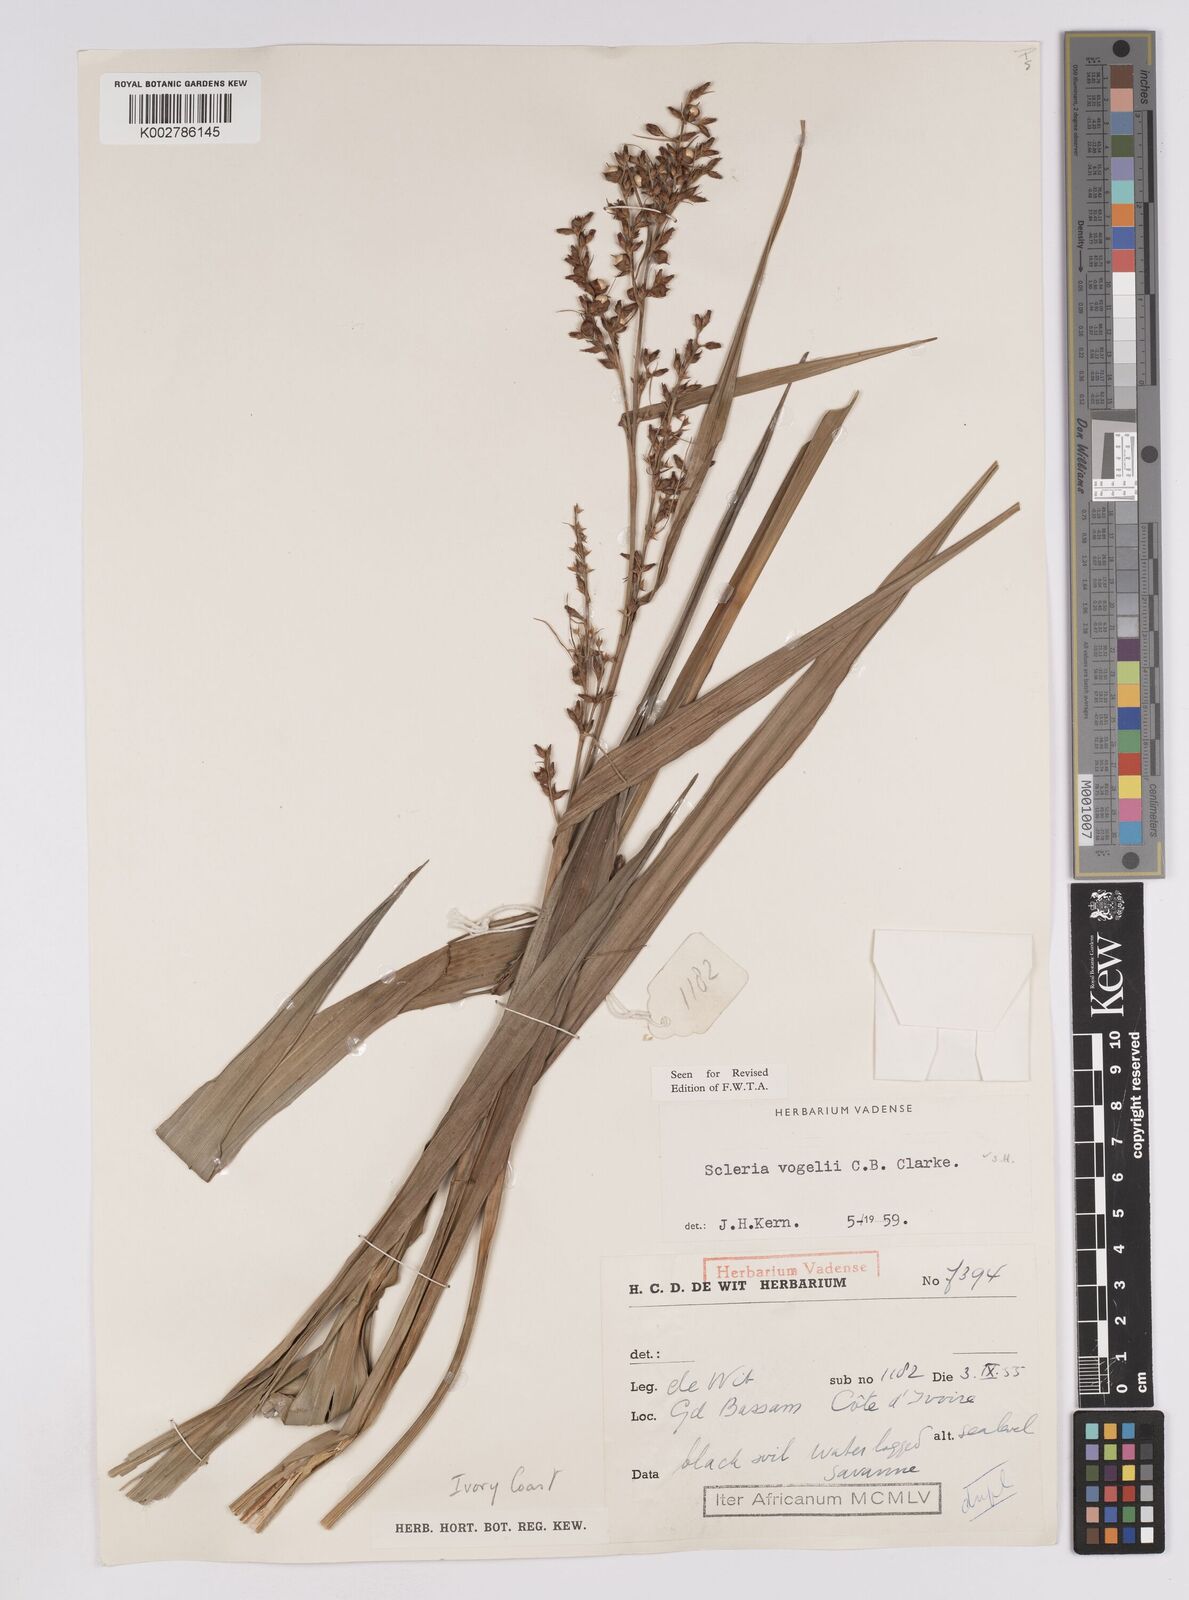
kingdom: Plantae
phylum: Tracheophyta
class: Liliopsida
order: Poales
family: Cyperaceae
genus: Scleria
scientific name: Scleria vogelii
